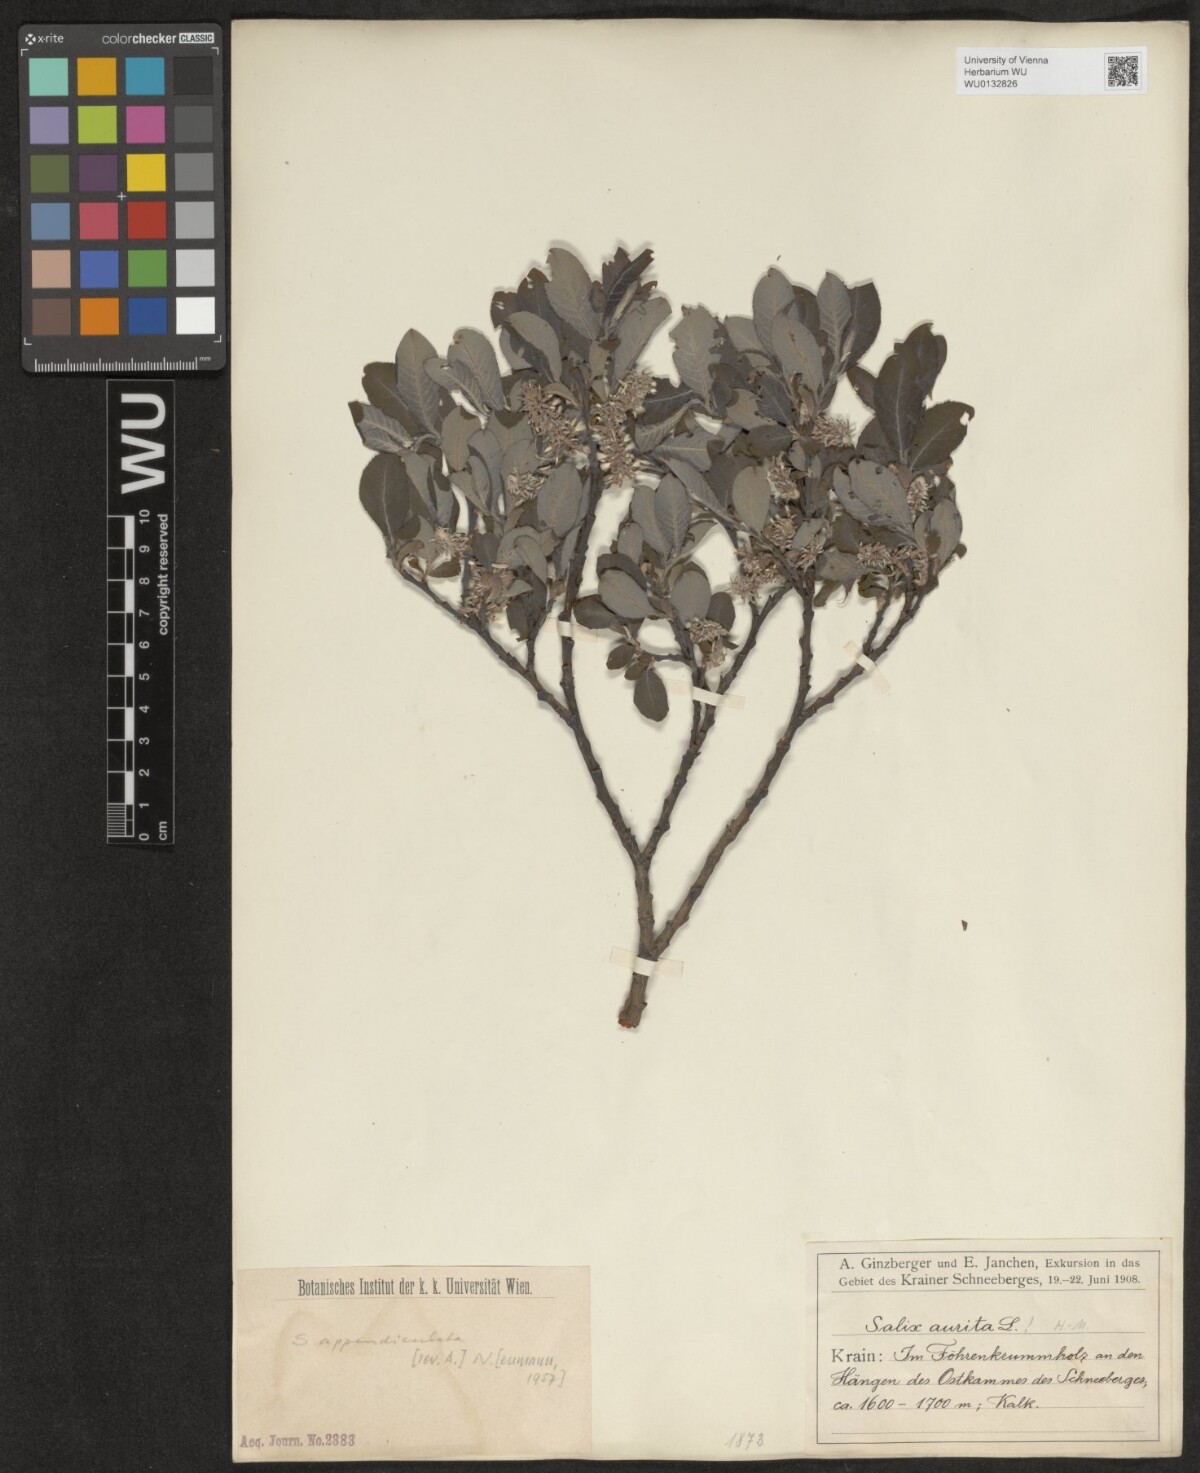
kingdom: Plantae
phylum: Tracheophyta
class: Magnoliopsida
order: Malpighiales
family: Salicaceae
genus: Salix
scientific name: Salix appendiculata
